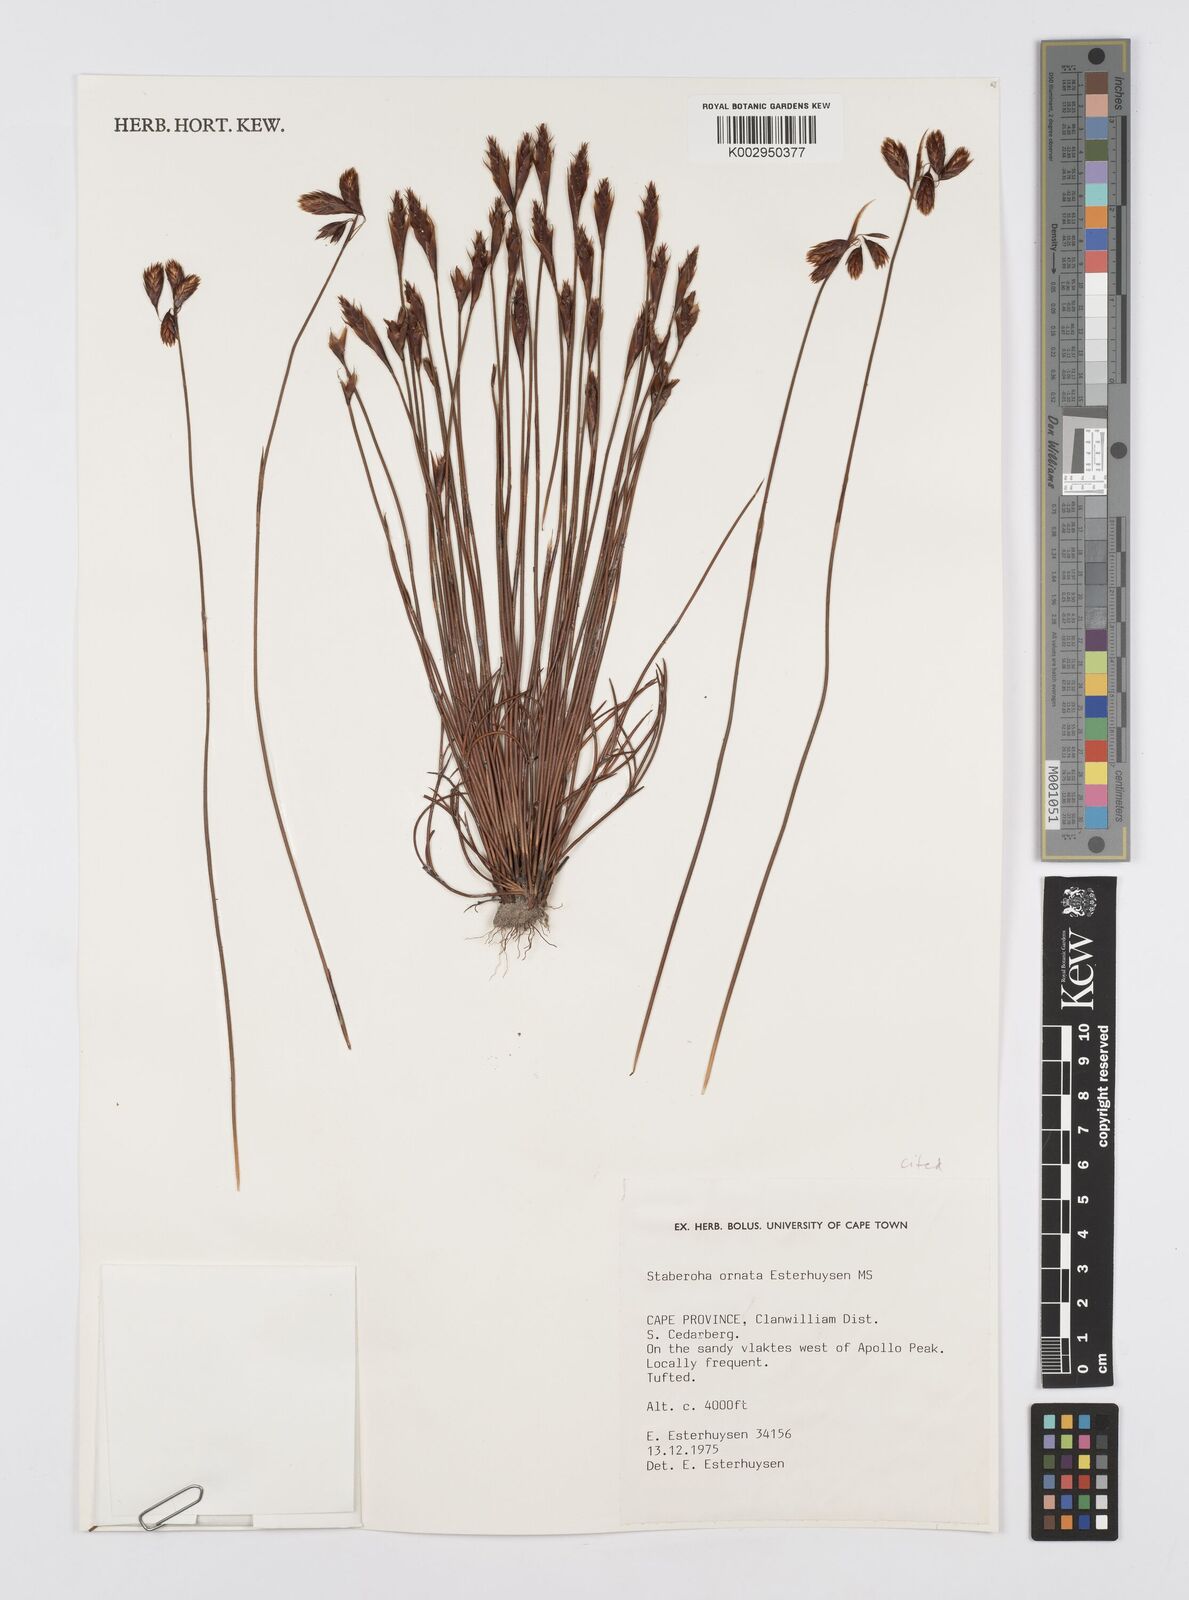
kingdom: Plantae
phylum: Tracheophyta
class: Liliopsida
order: Poales
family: Restionaceae
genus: Staberoha
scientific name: Staberoha ornata
